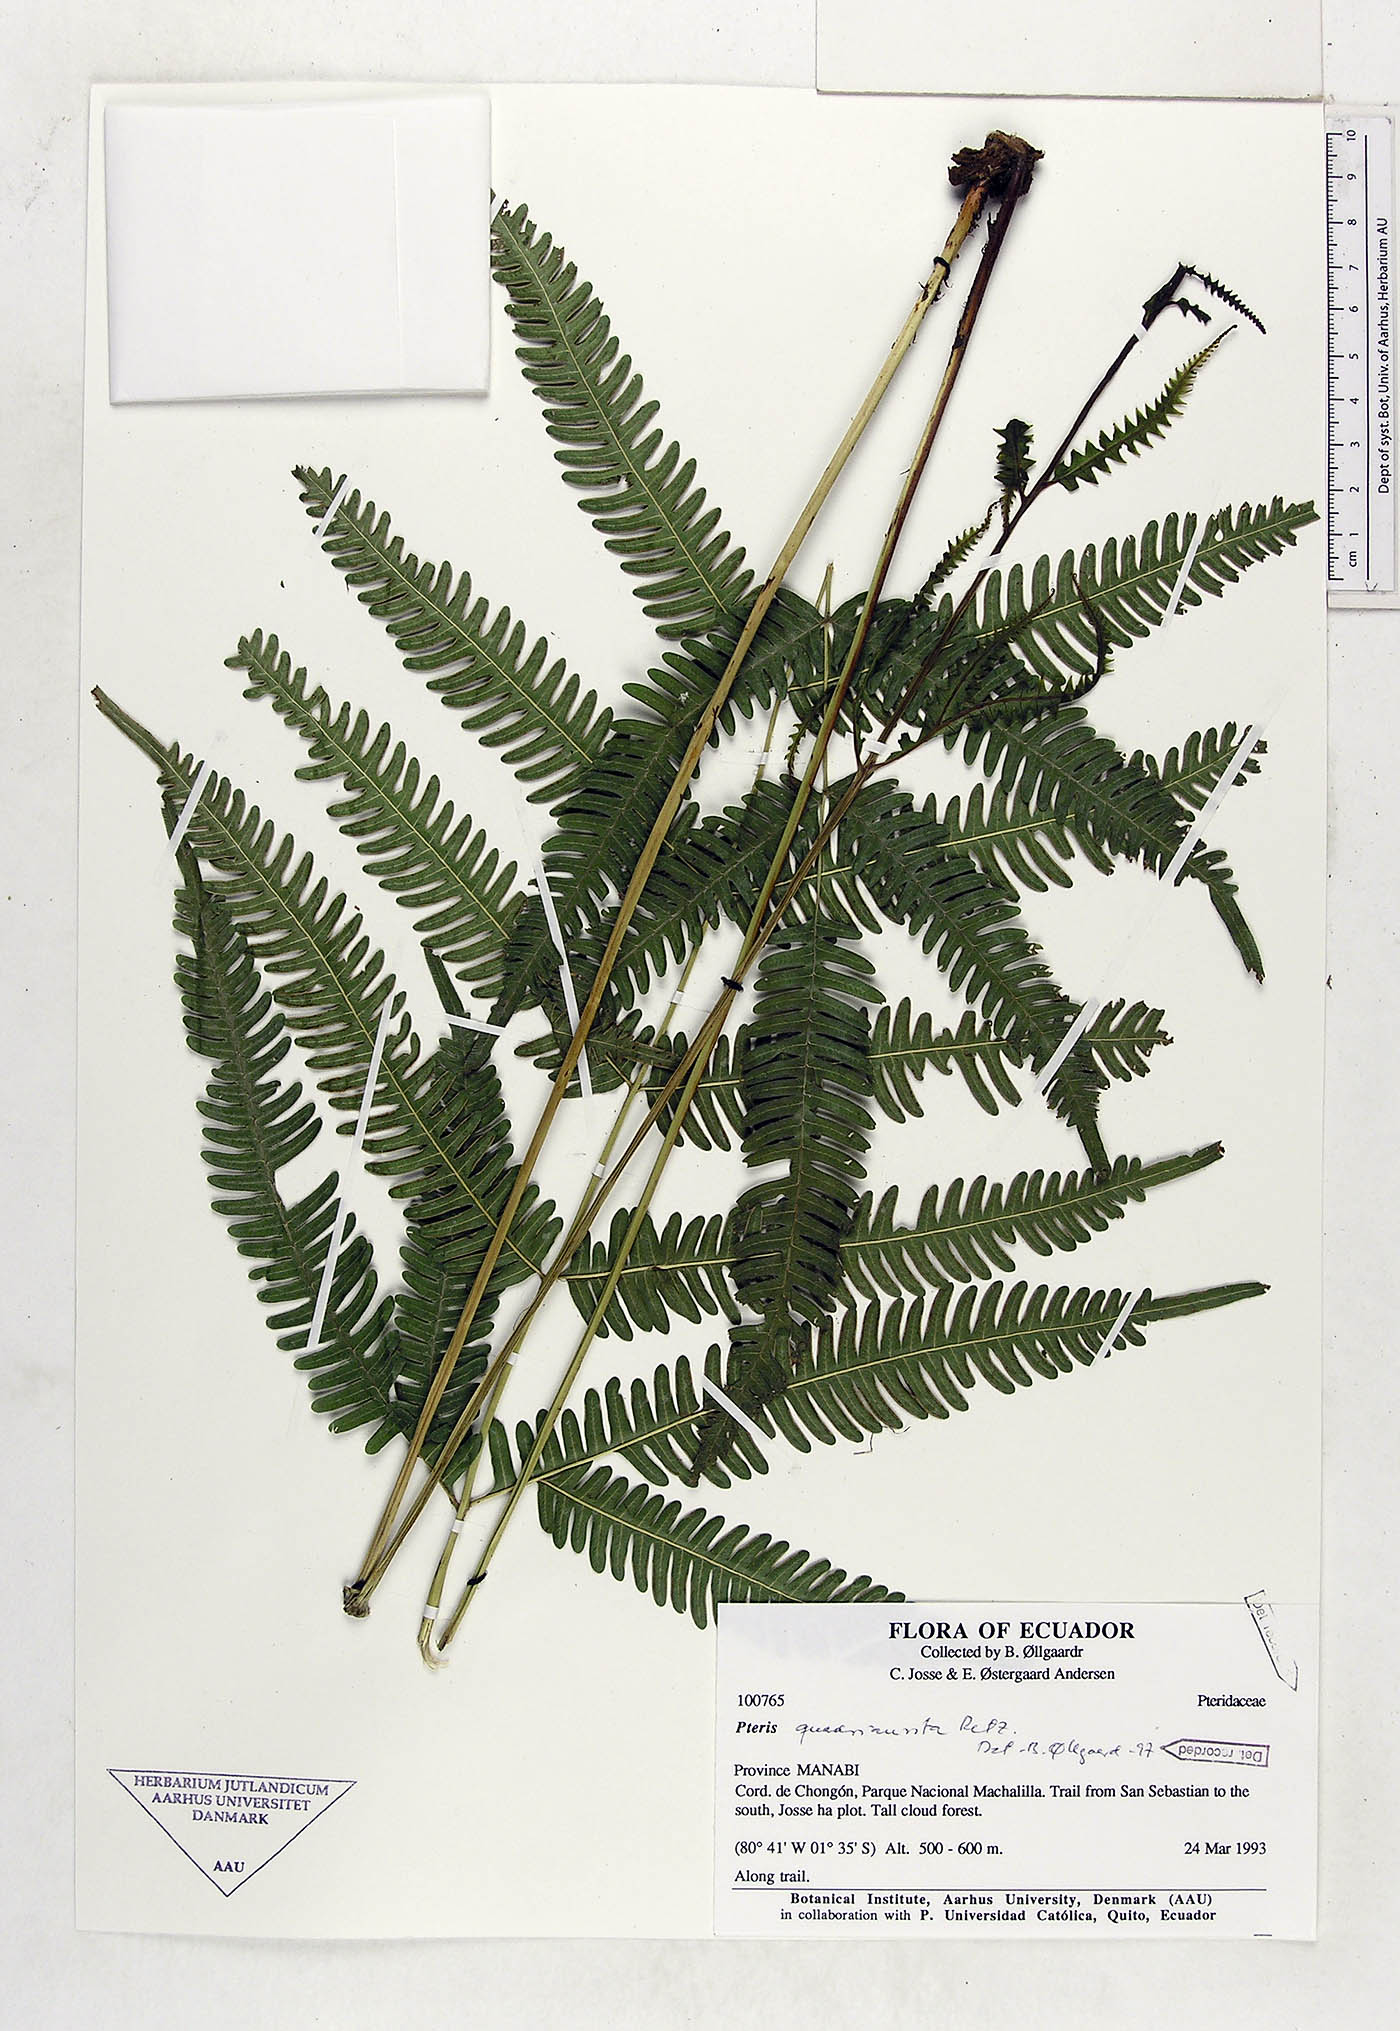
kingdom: Plantae
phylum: Tracheophyta
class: Polypodiopsida
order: Polypodiales
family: Pteridaceae
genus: Pteris
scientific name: Pteris quadriaurita
